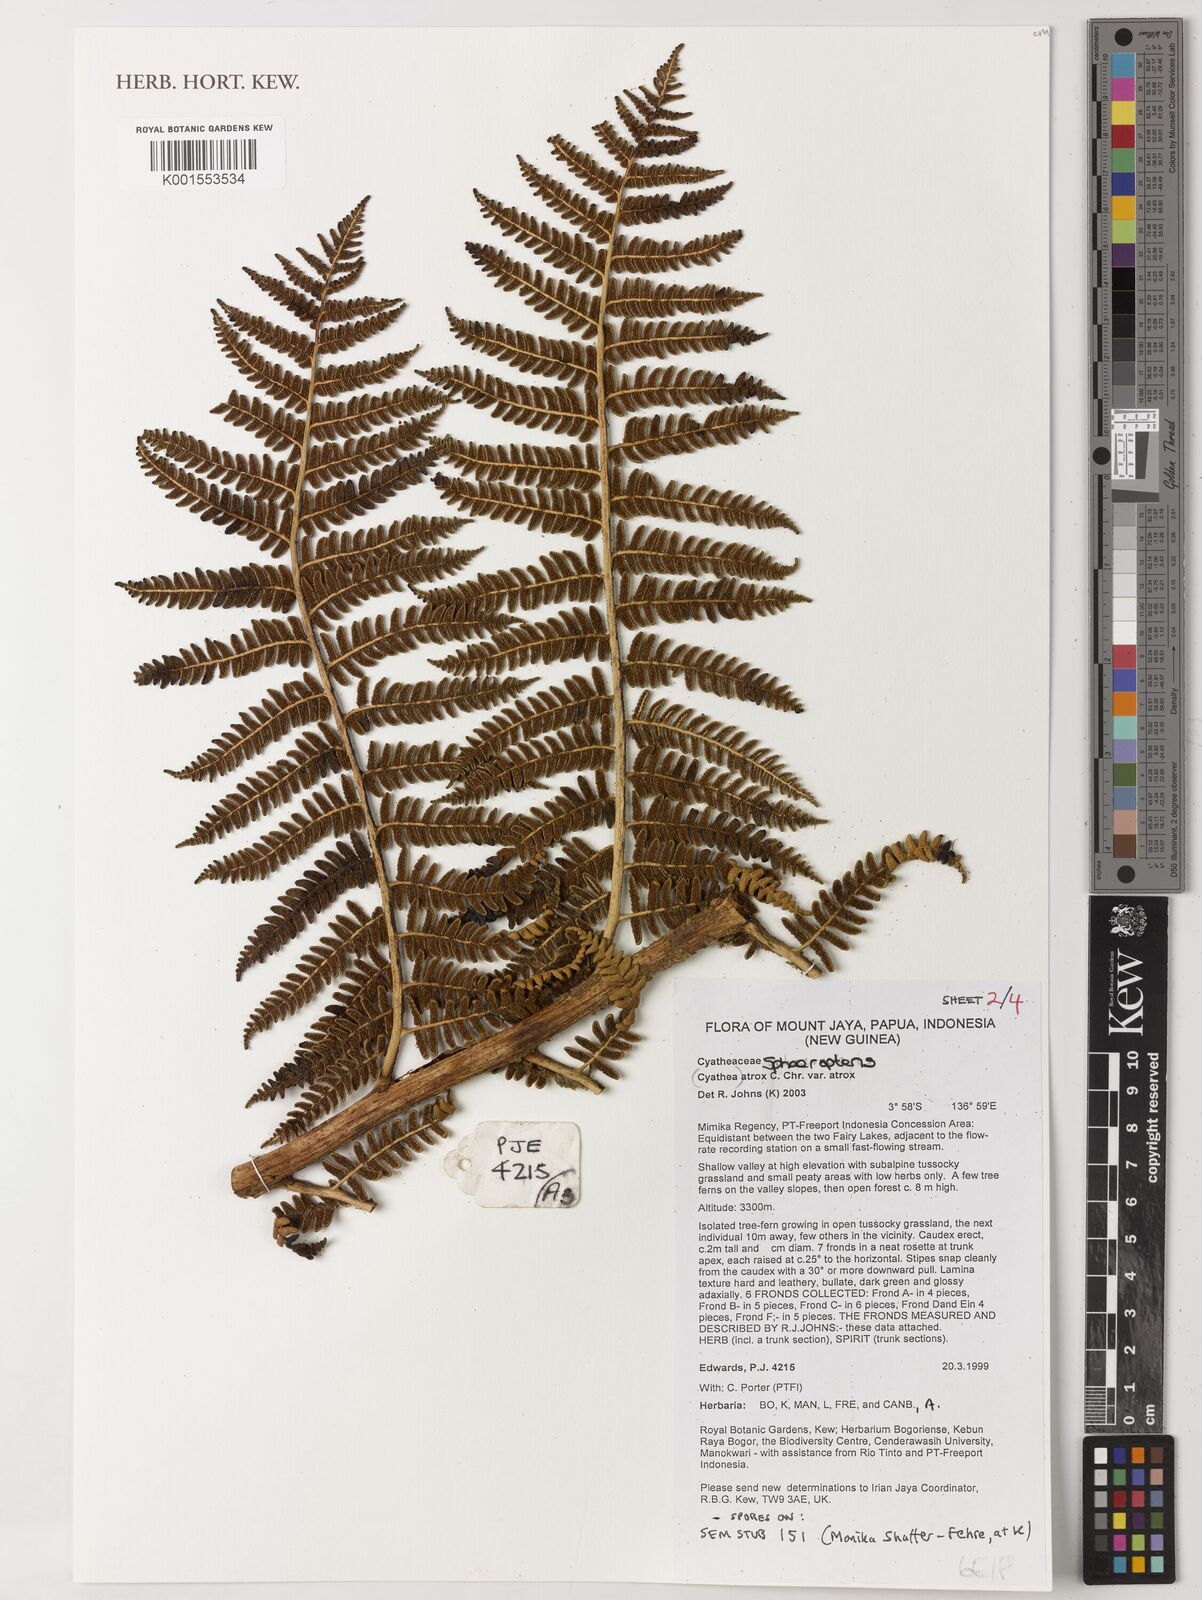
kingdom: Plantae
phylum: Tracheophyta
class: Polypodiopsida
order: Cyatheales
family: Cyatheaceae
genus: Sphaeropteris
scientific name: Sphaeropteris atrox
